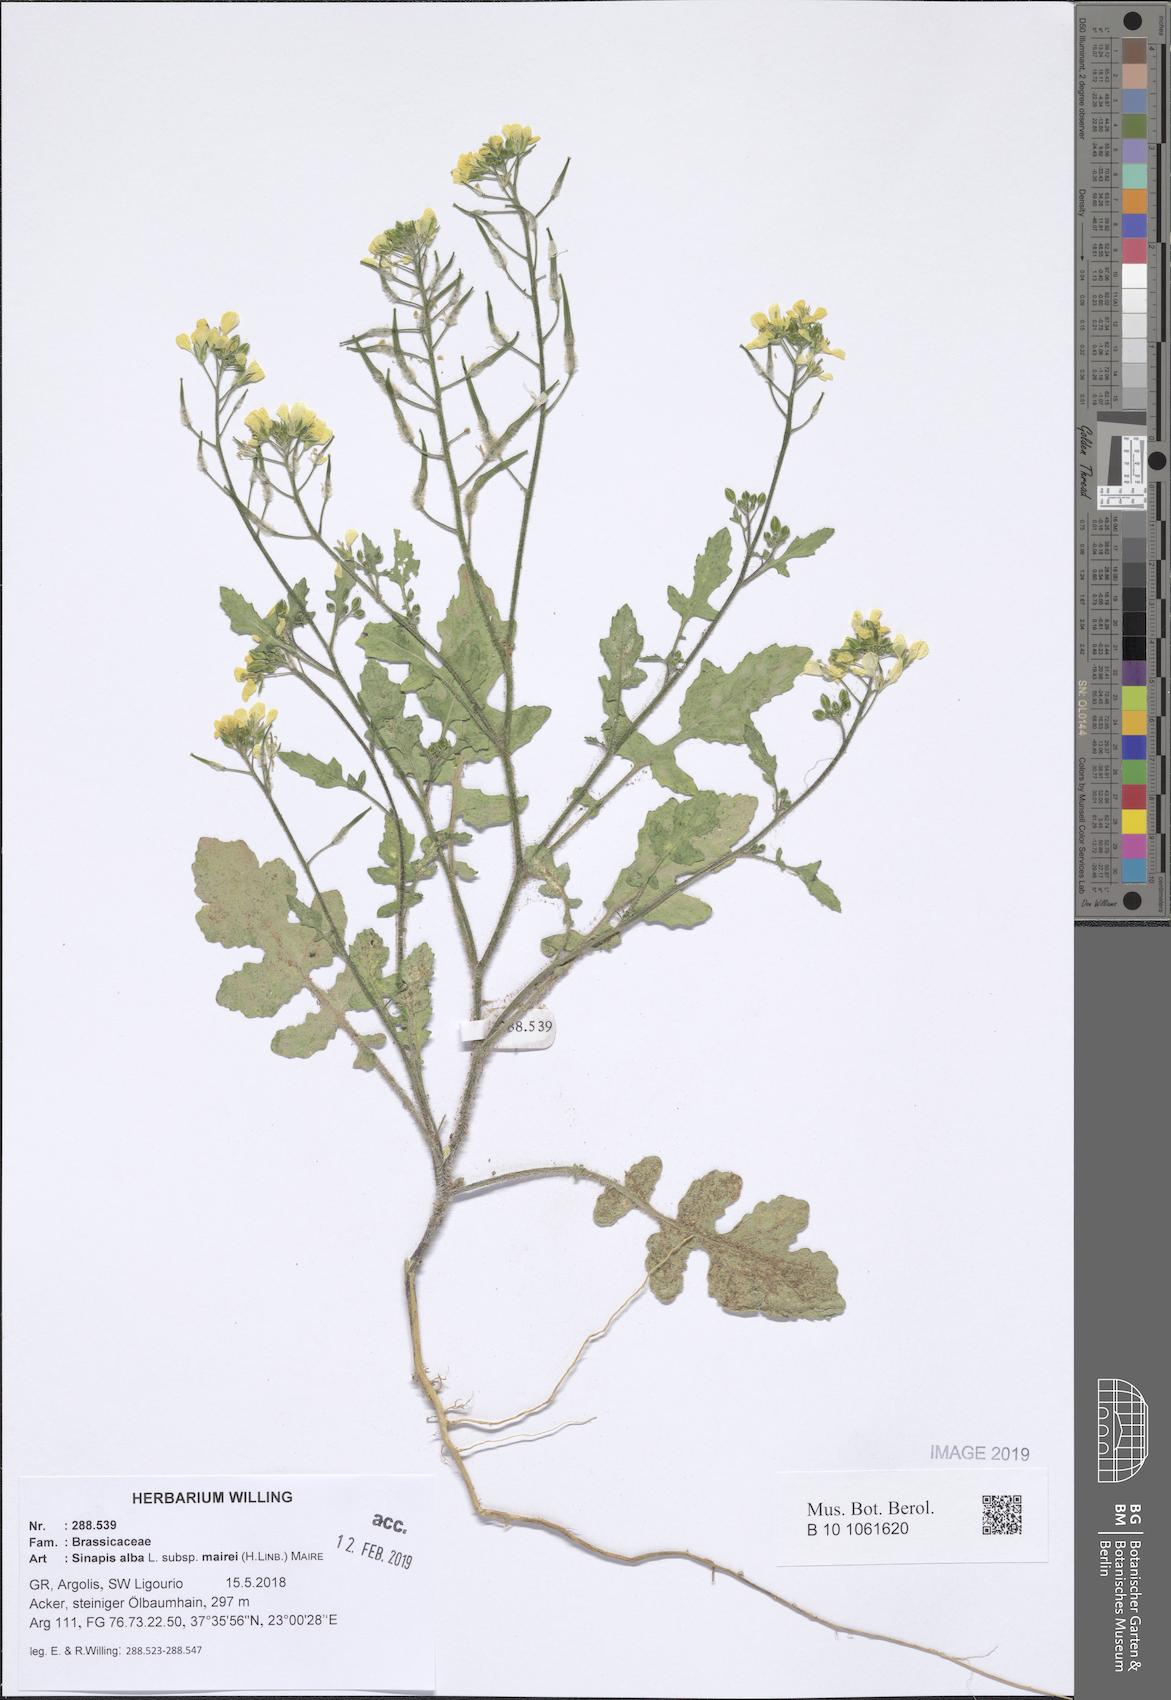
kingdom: Plantae
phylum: Tracheophyta
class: Magnoliopsida
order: Brassicales
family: Brassicaceae
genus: Sinapis
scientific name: Sinapis alba
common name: White mustard
